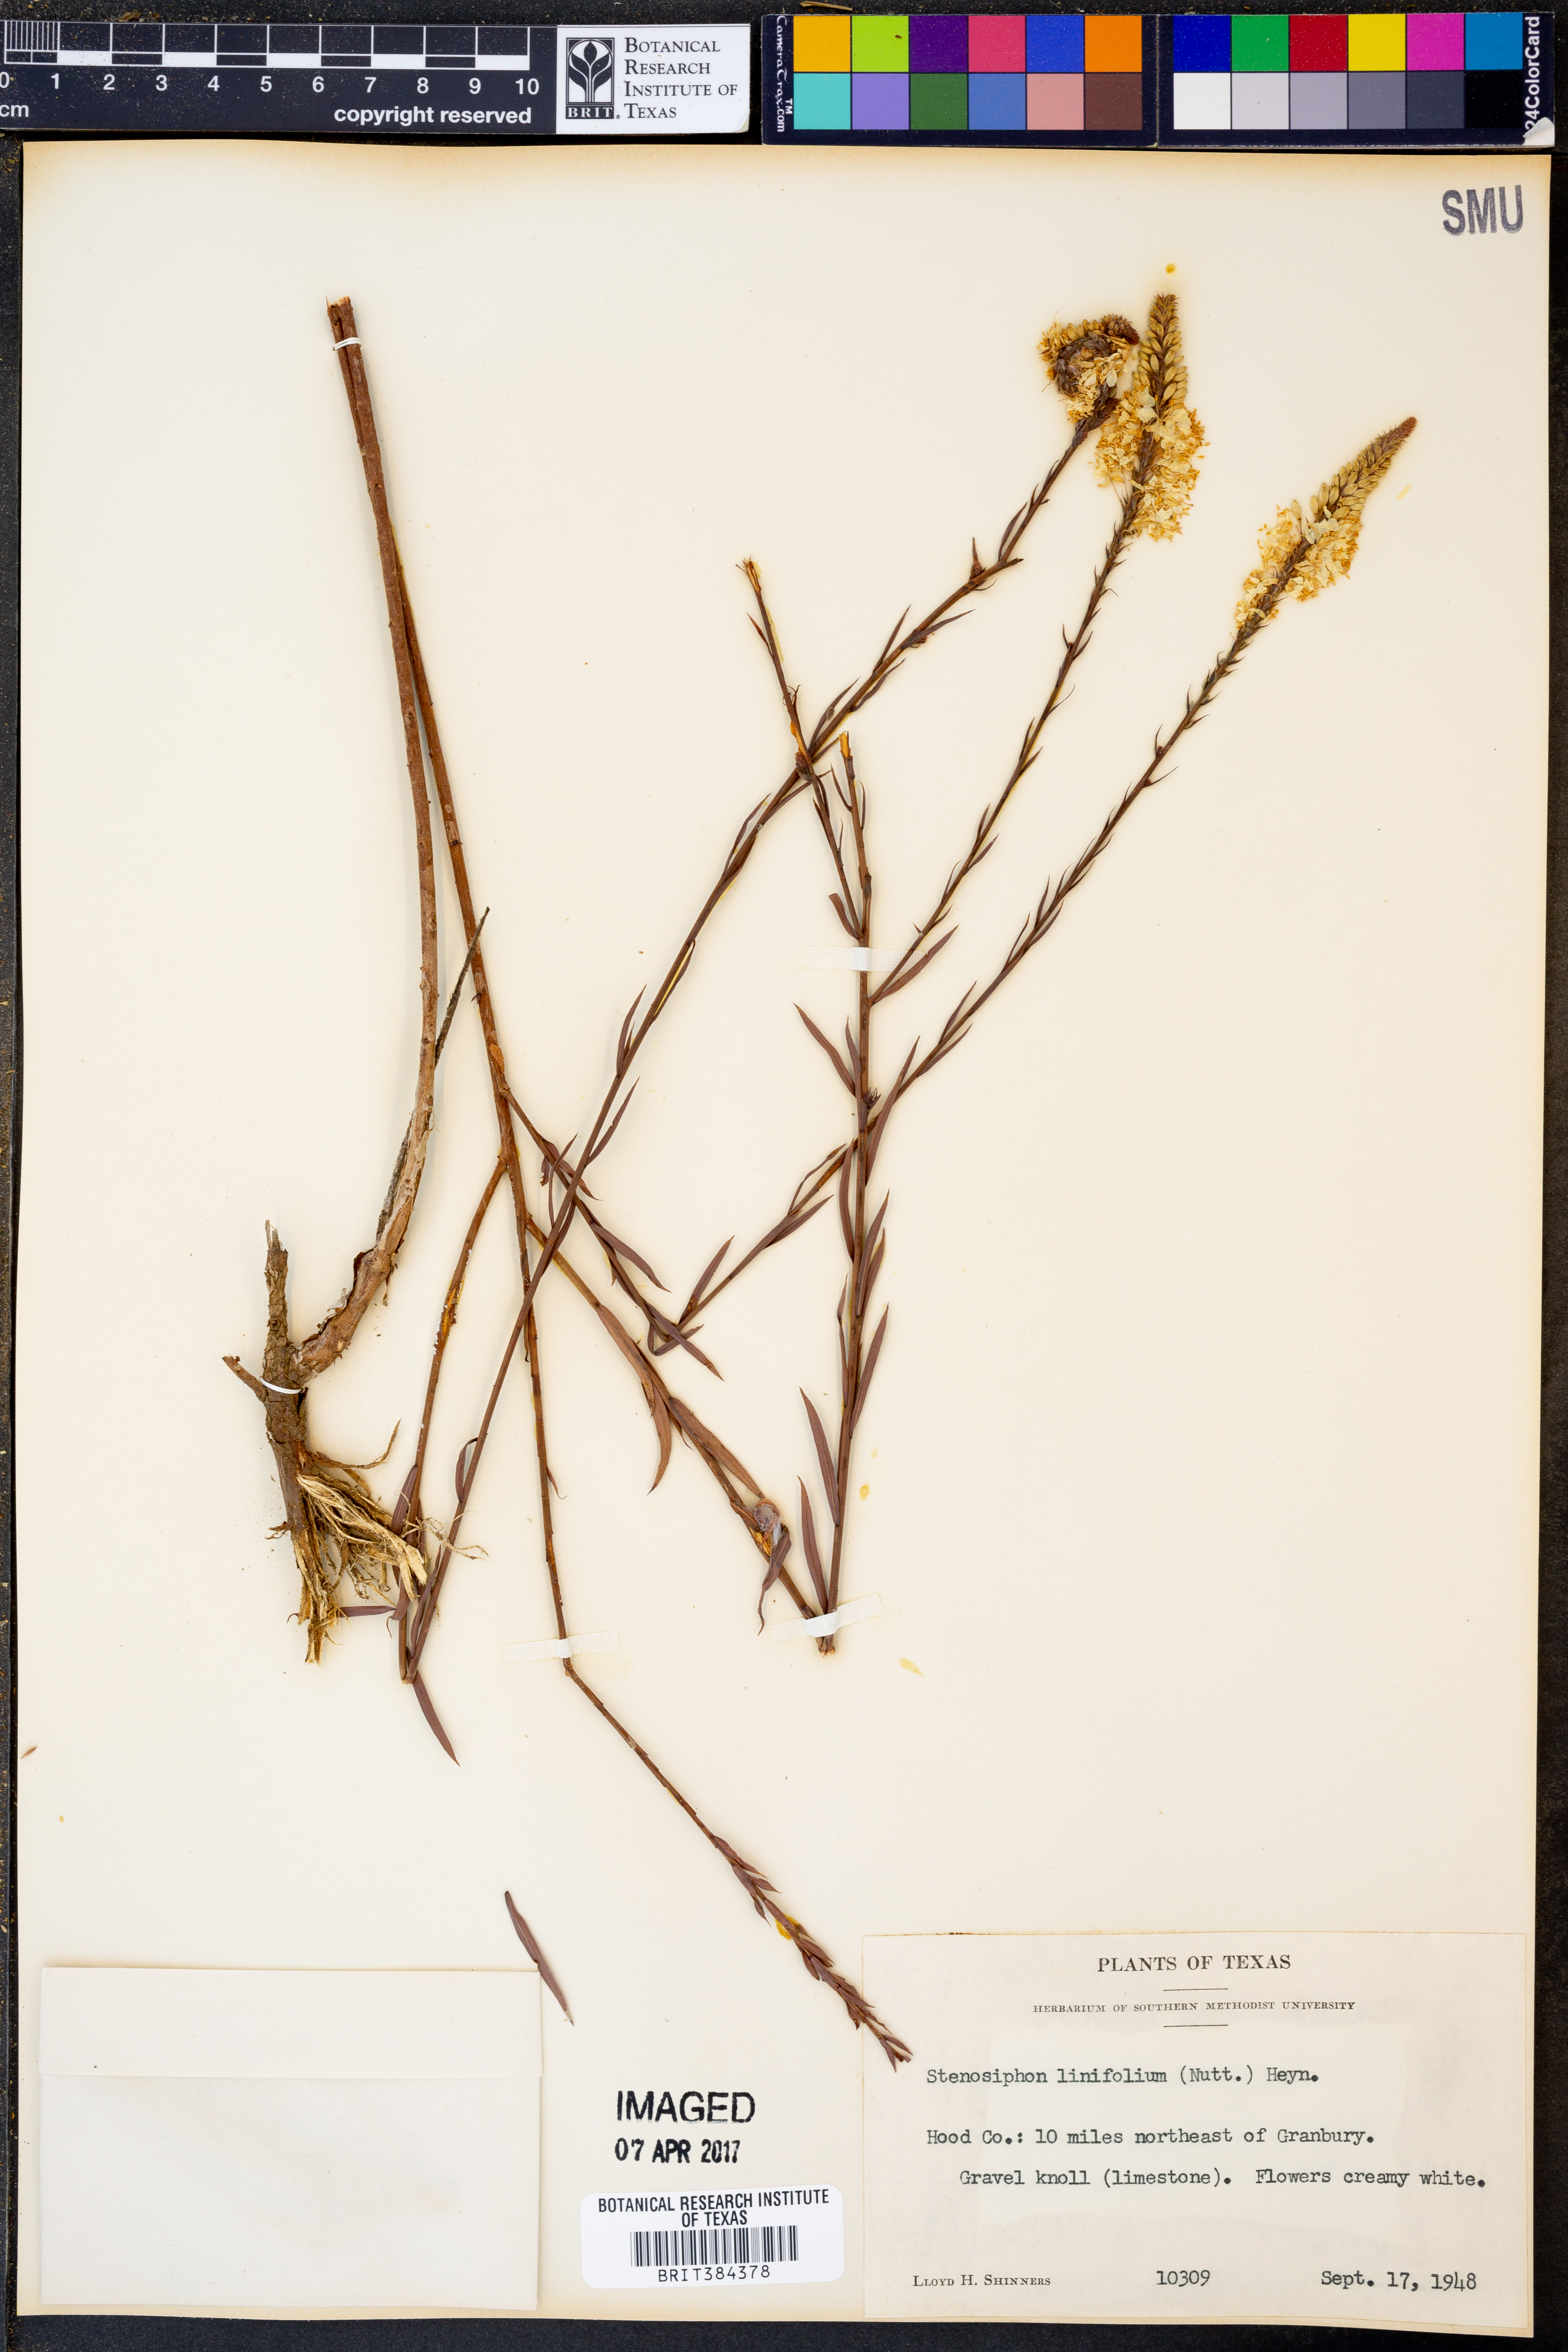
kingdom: Plantae
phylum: Tracheophyta
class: Magnoliopsida
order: Myrtales
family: Onagraceae
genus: Oenothera
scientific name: Oenothera glaucifolia
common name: False gaura
